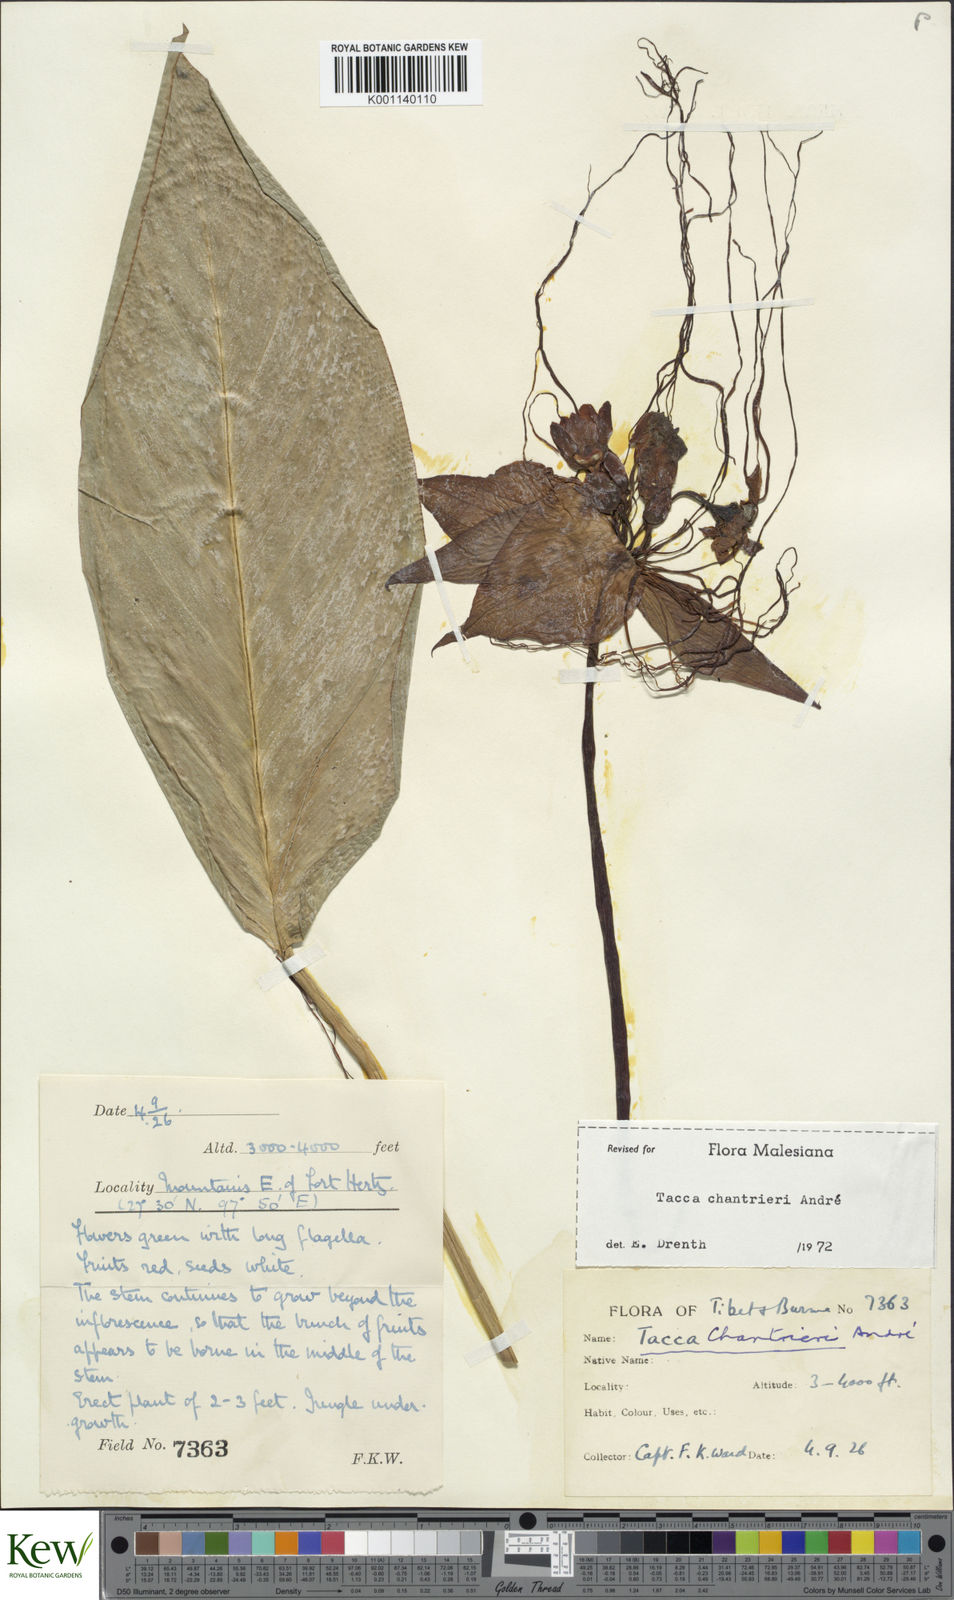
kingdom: Plantae
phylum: Tracheophyta
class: Liliopsida
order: Dioscoreales
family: Dioscoreaceae
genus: Tacca
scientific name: Tacca
